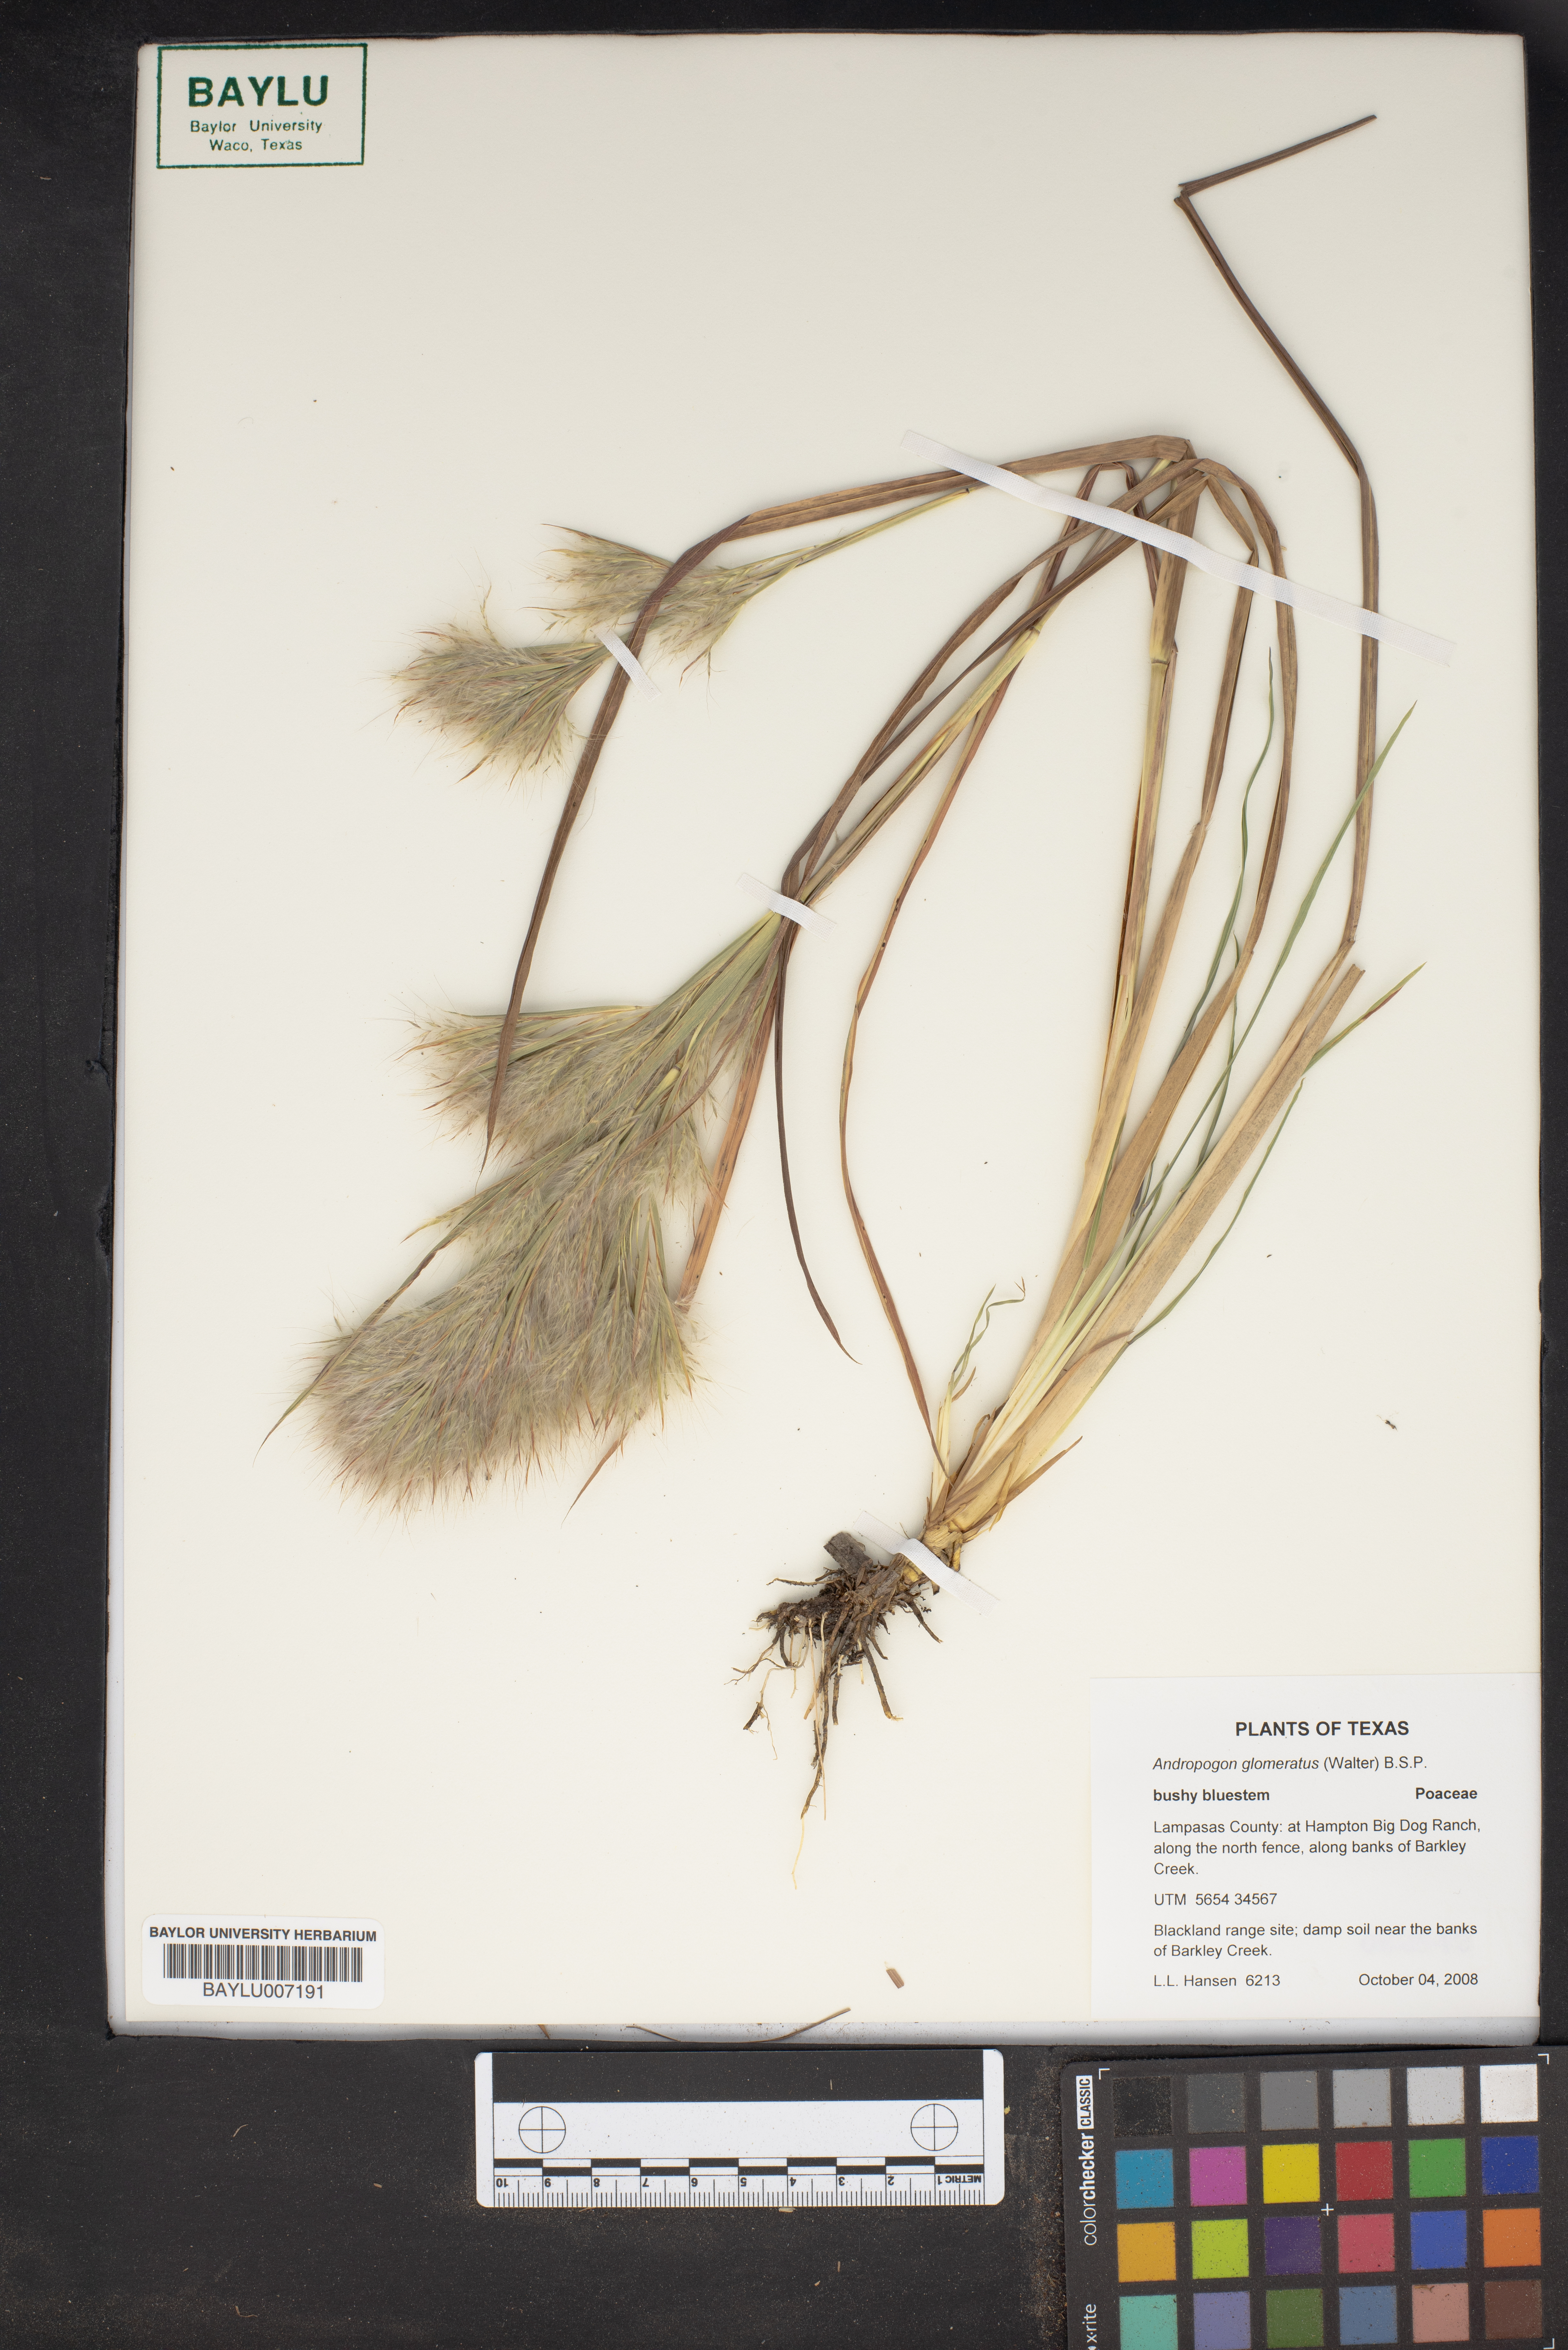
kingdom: Plantae
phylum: Tracheophyta
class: Liliopsida
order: Poales
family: Poaceae
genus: Andropogon
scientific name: Andropogon glomeratus
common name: Bushy beard grass
